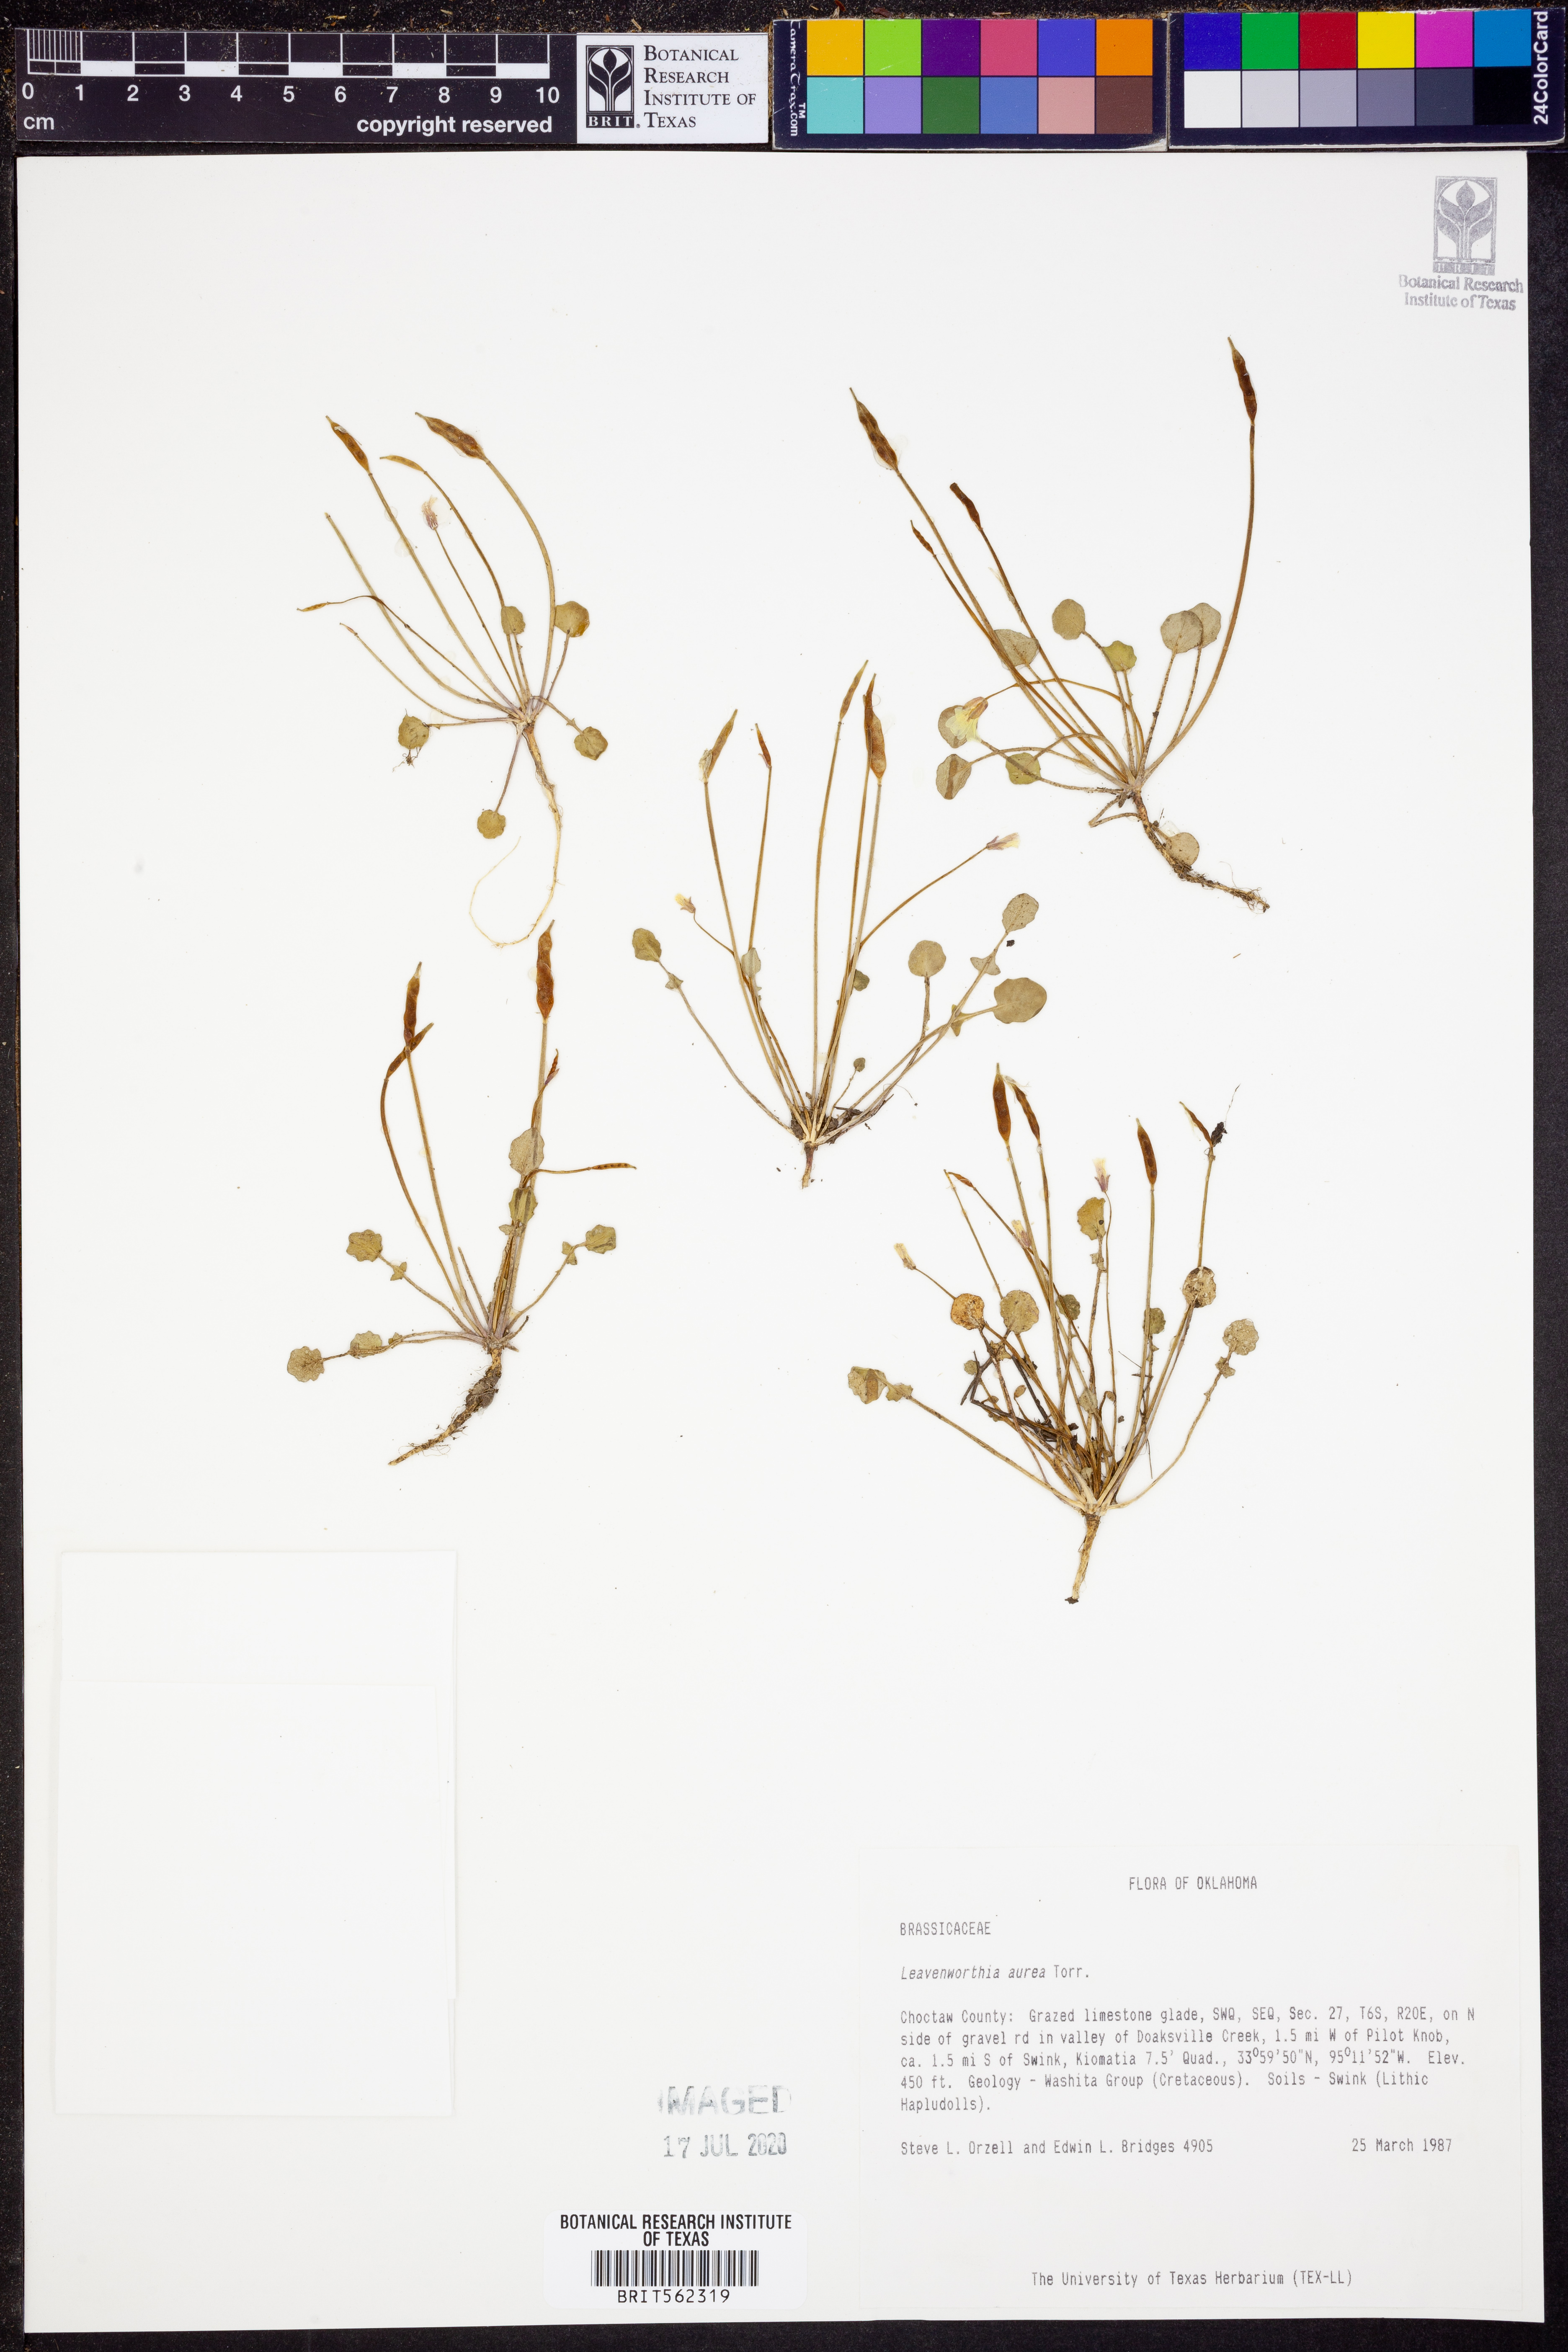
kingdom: Plantae
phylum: Tracheophyta
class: Magnoliopsida
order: Brassicales
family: Brassicaceae
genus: Leavenworthia
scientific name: Leavenworthia aurea
